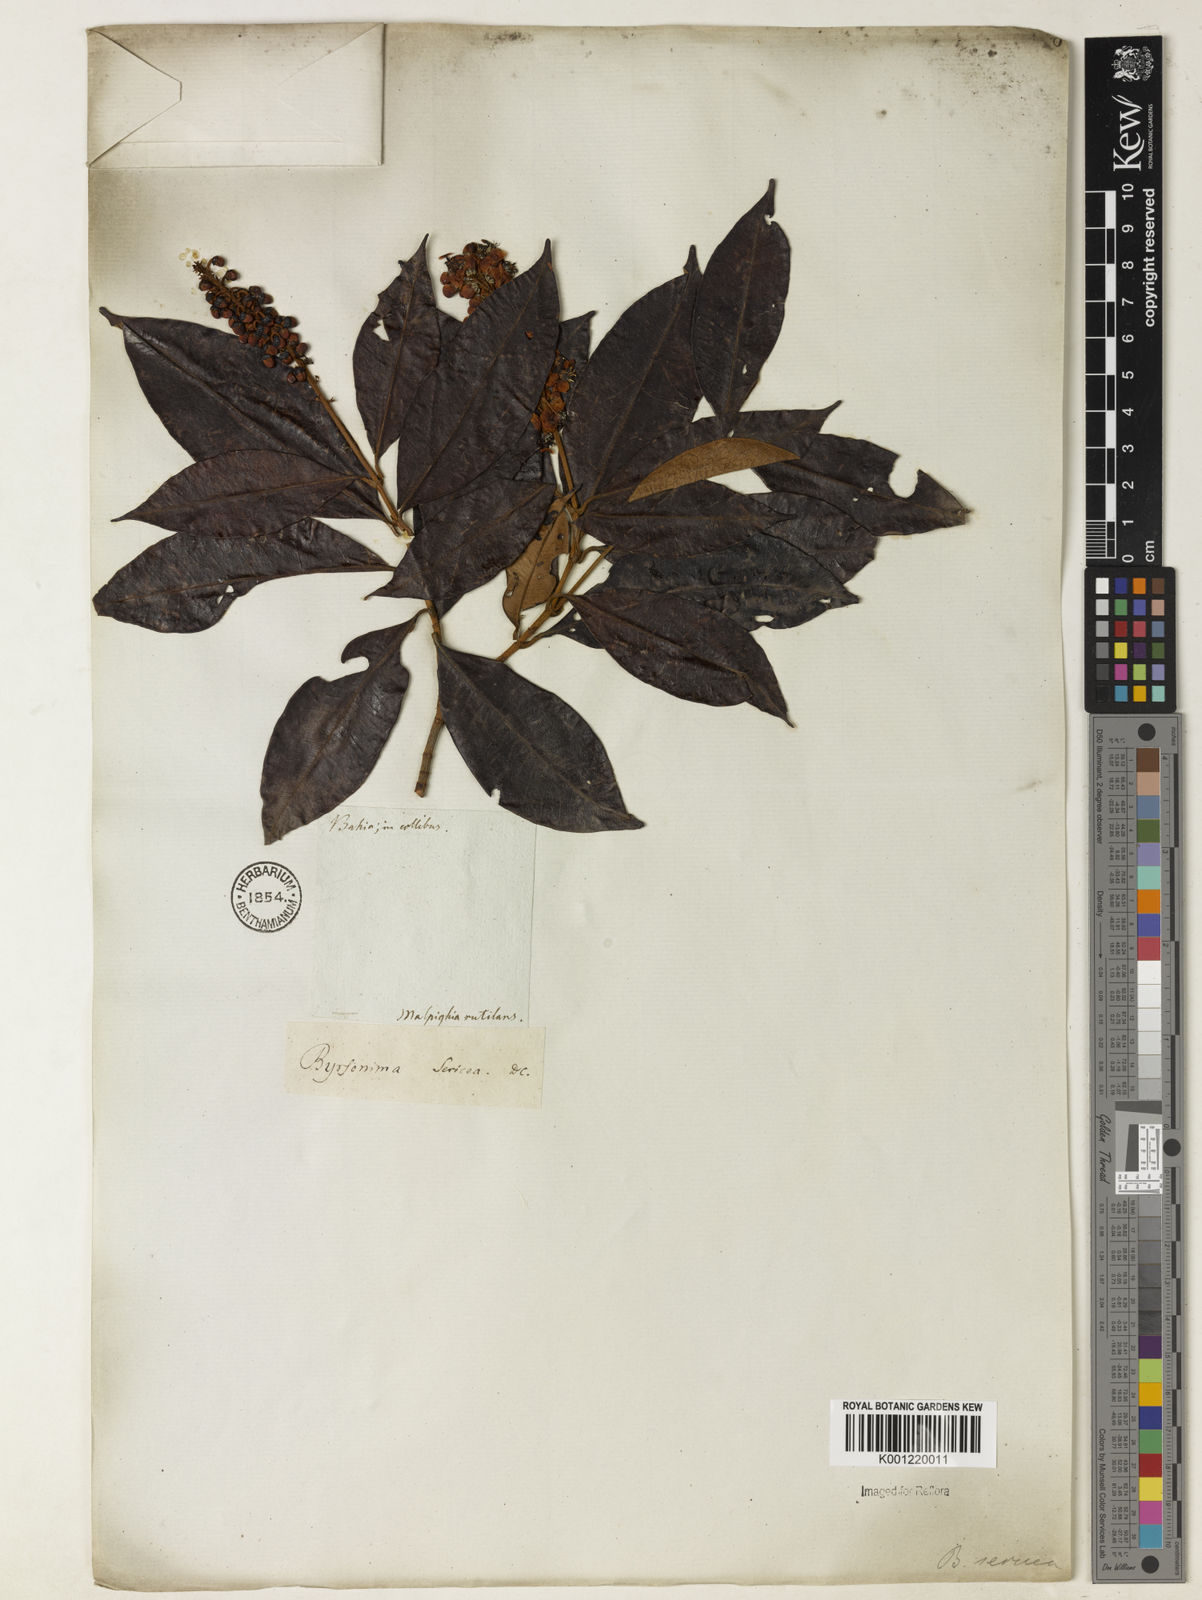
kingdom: Plantae
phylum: Tracheophyta
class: Magnoliopsida
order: Malpighiales
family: Malpighiaceae
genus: Byrsonima
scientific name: Byrsonima sericea
